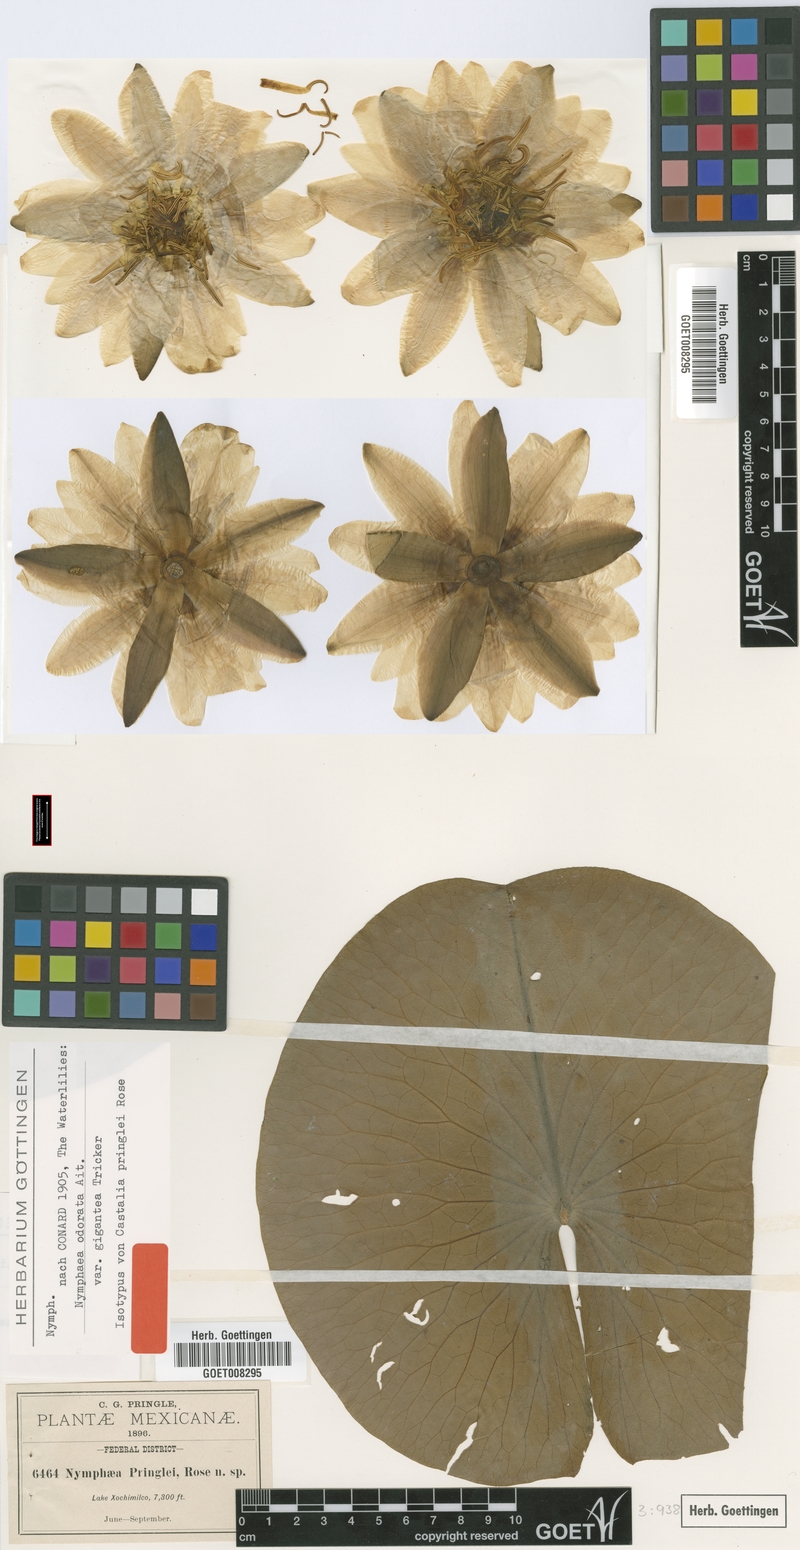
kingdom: Plantae
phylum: Tracheophyta
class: Magnoliopsida
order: Nymphaeales
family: Nymphaeaceae
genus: Nymphaea
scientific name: Nymphaea odorata
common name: Fragrant water-lily
